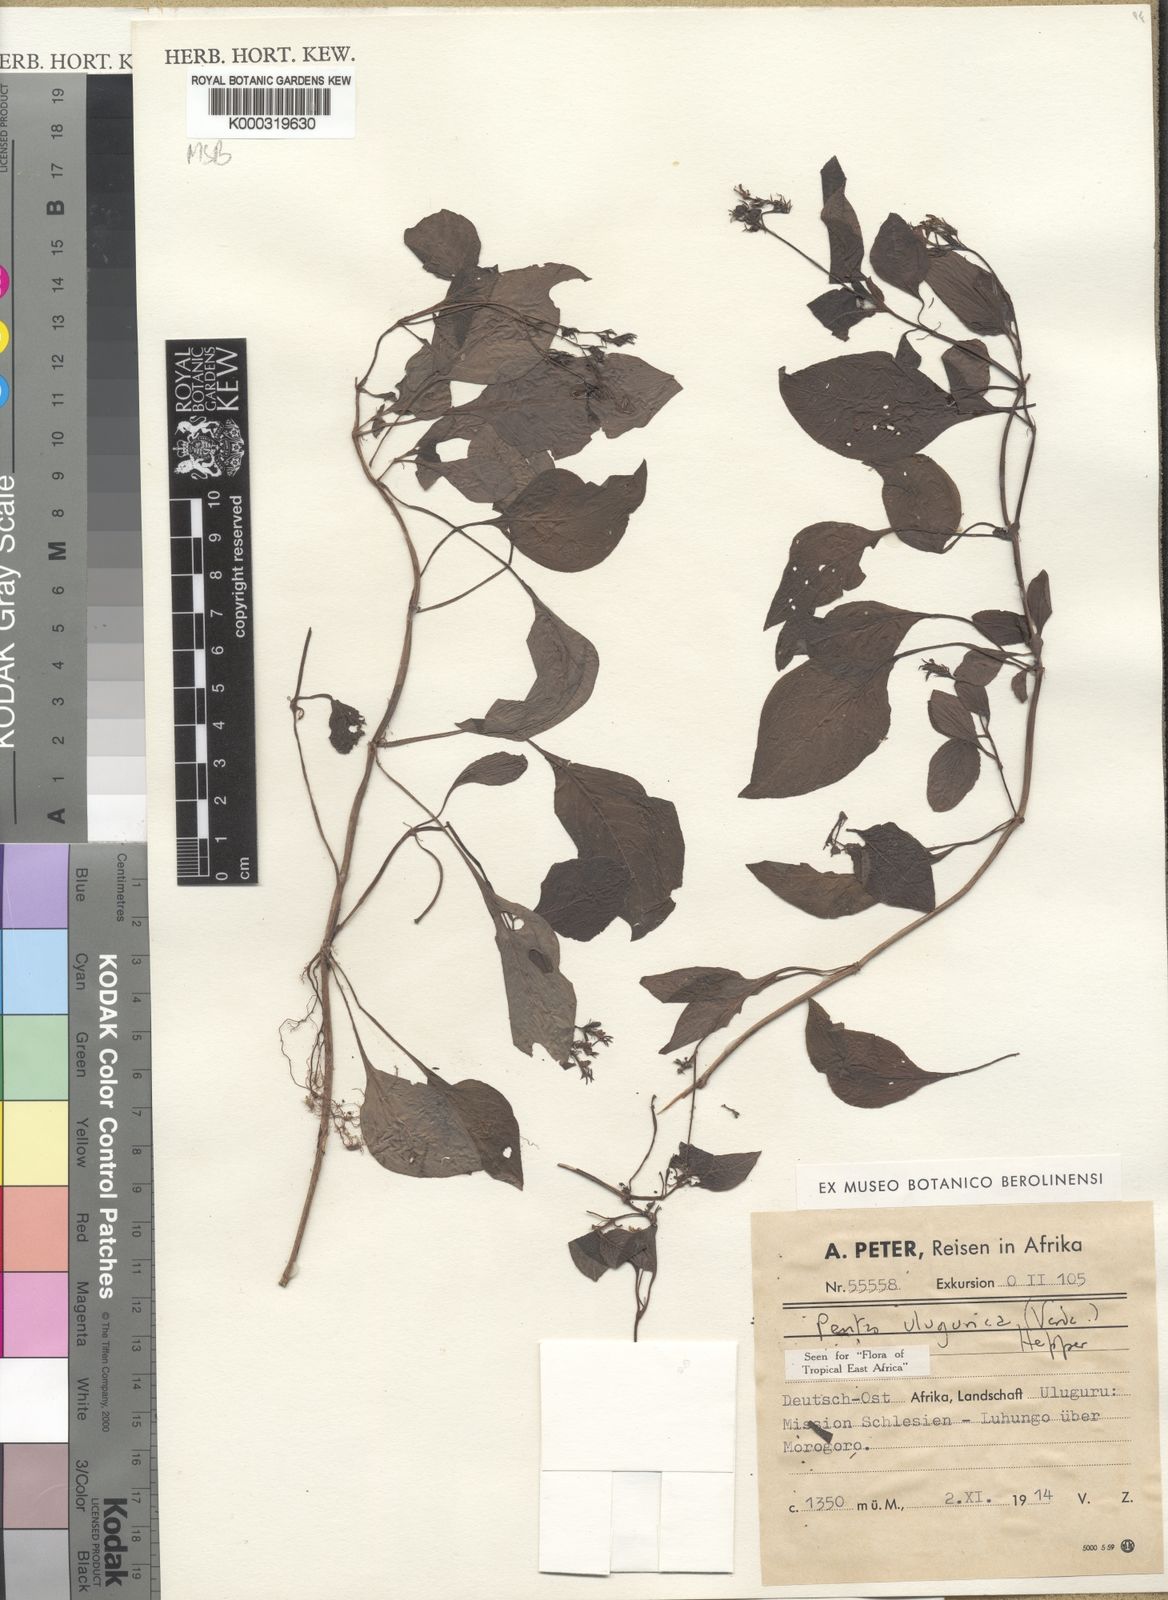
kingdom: Plantae
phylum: Tracheophyta
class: Magnoliopsida
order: Gentianales
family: Rubiaceae
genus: Phyllopentas
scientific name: Phyllopentas ulugurica
